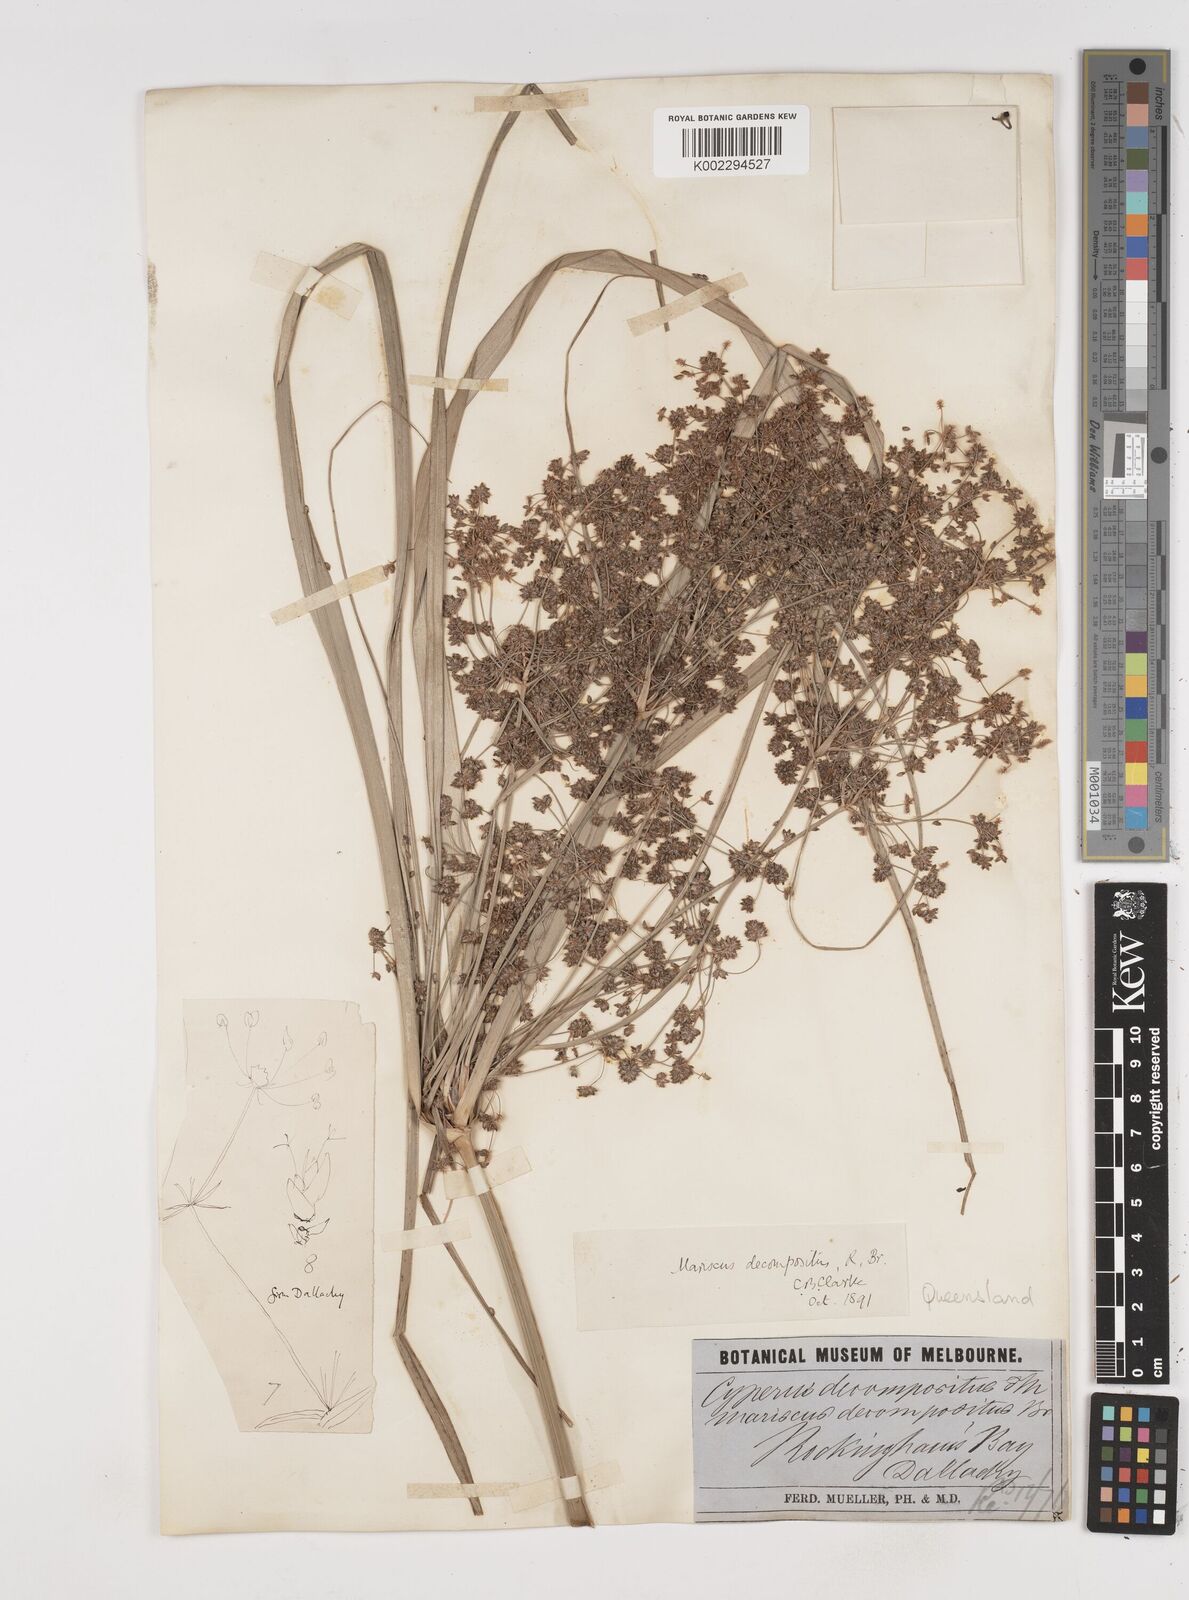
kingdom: Plantae
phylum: Tracheophyta
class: Liliopsida
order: Poales
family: Cyperaceae
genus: Cyperus
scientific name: Cyperus decompositus
